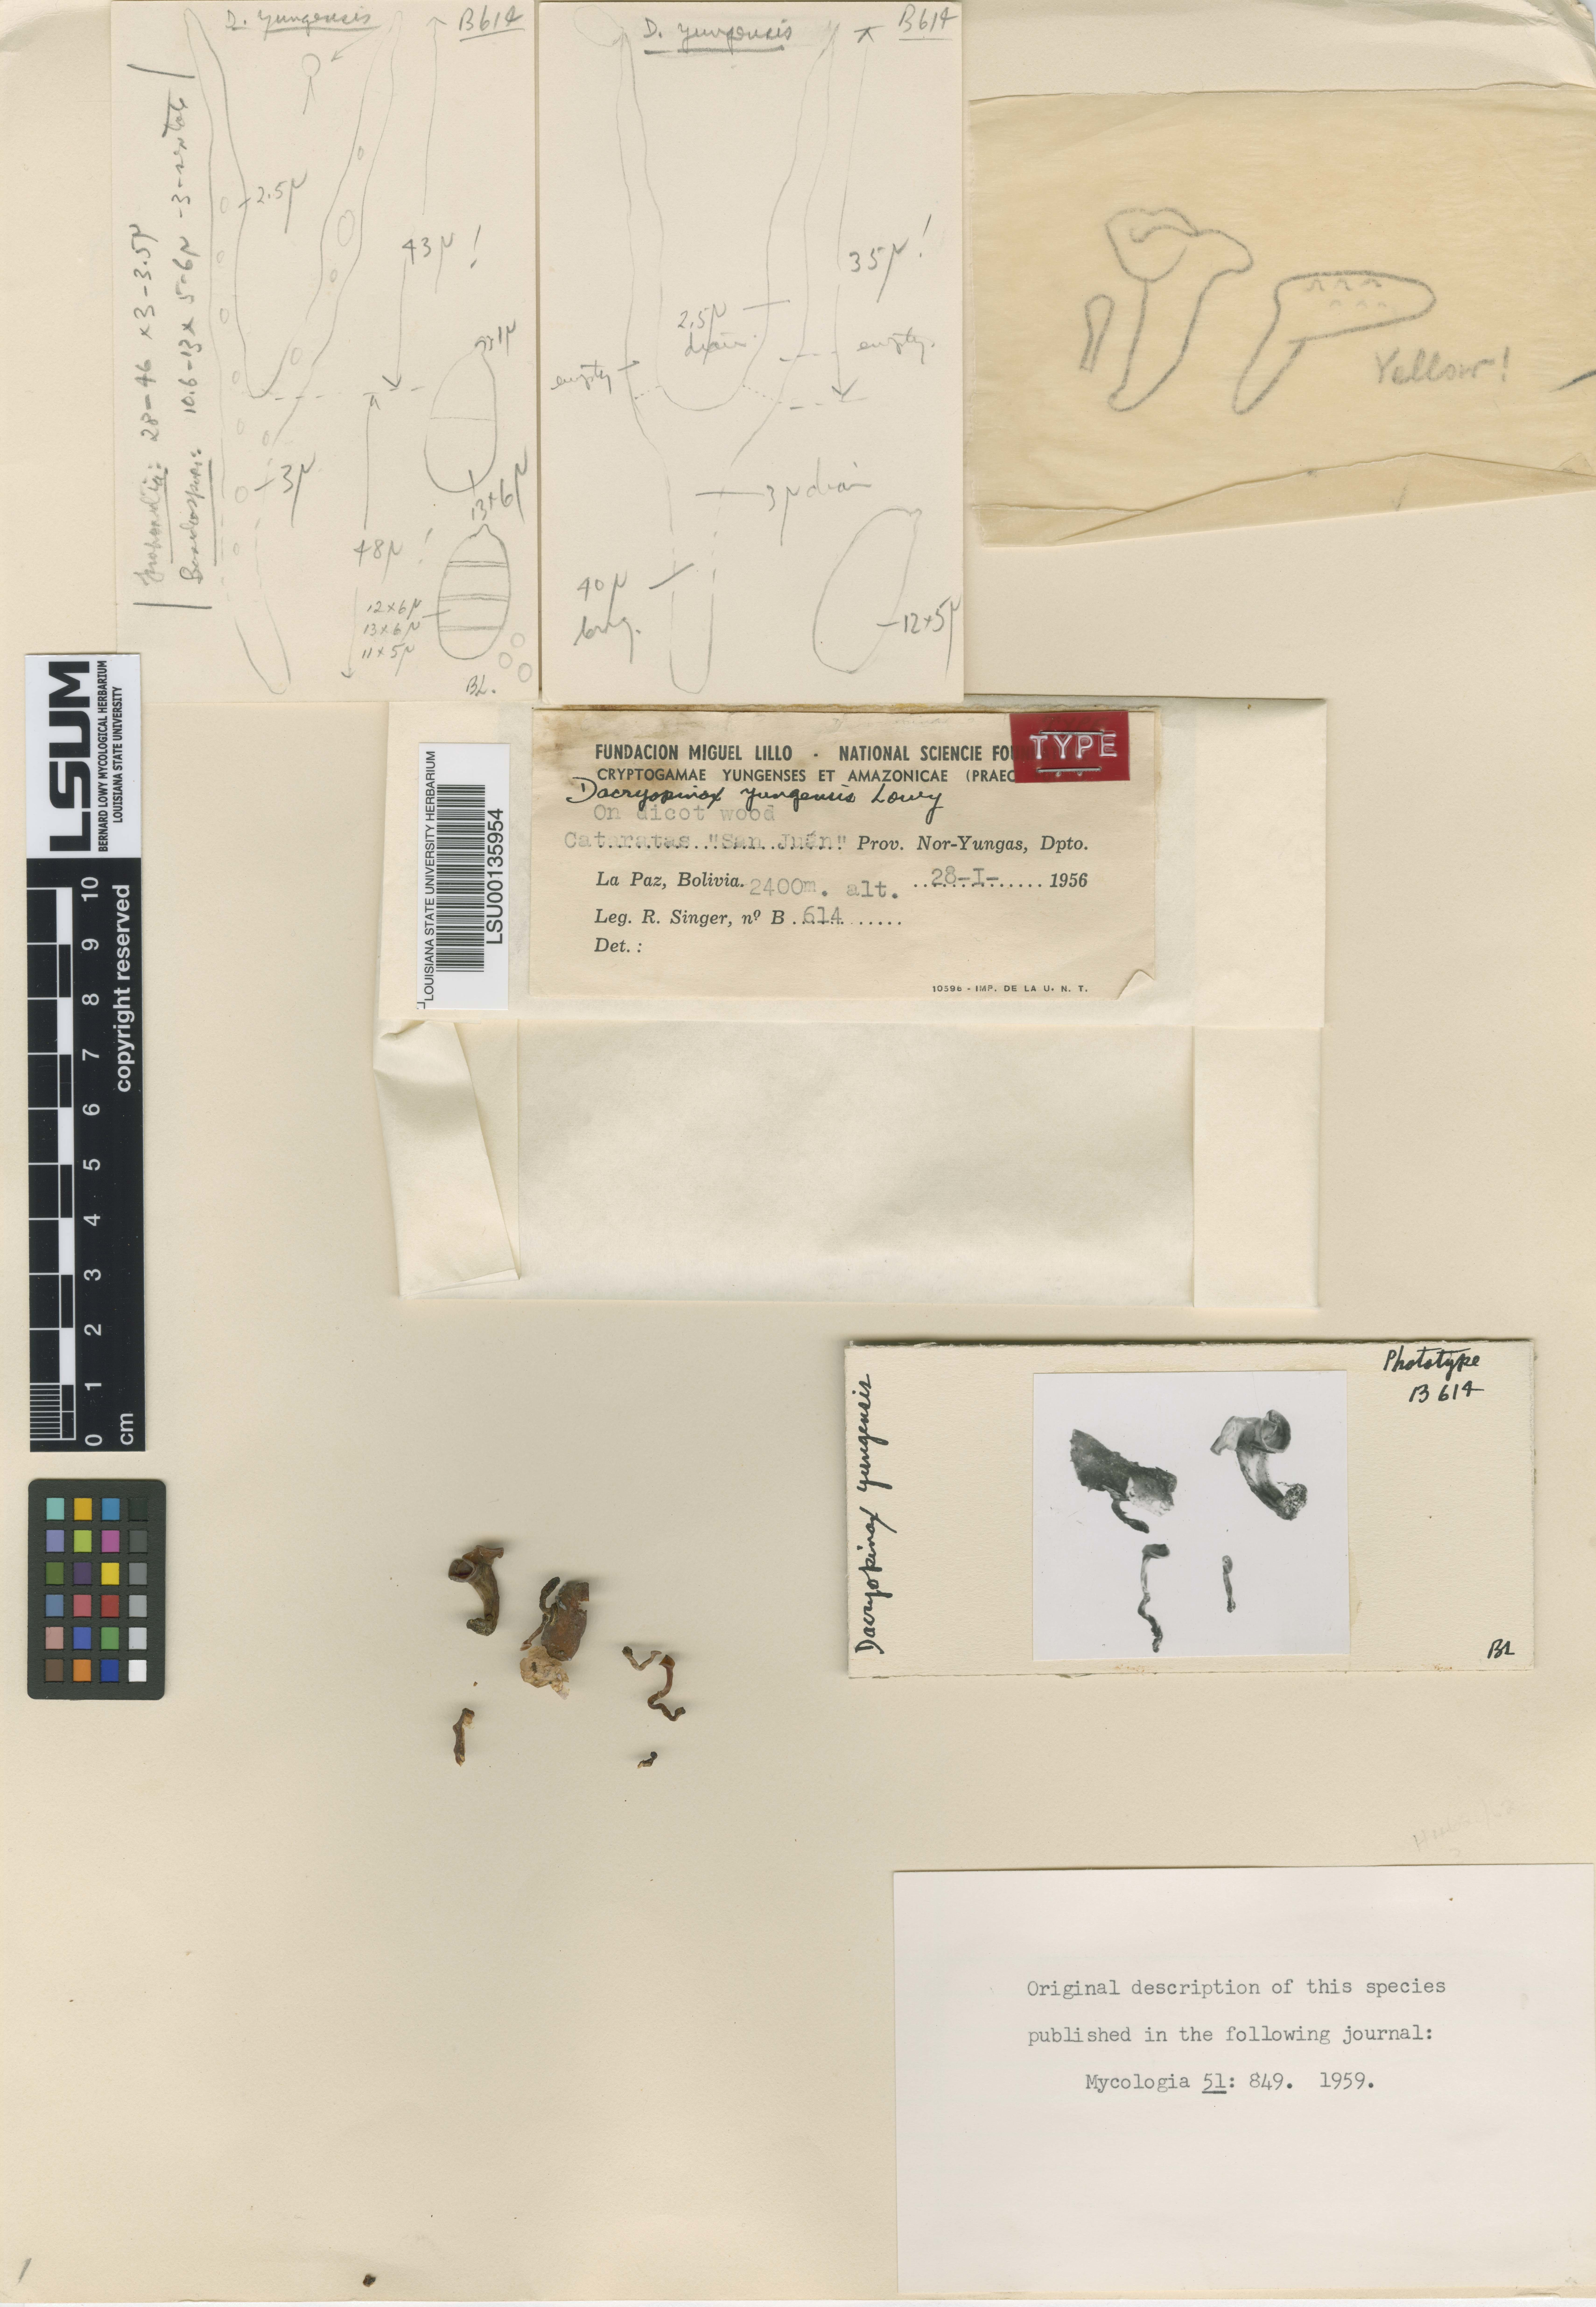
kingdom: Fungi
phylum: Basidiomycota
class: Dacrymycetes
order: Dacrymycetales
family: Dacrymycetaceae
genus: Dacryopinax
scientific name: Dacryopinax
